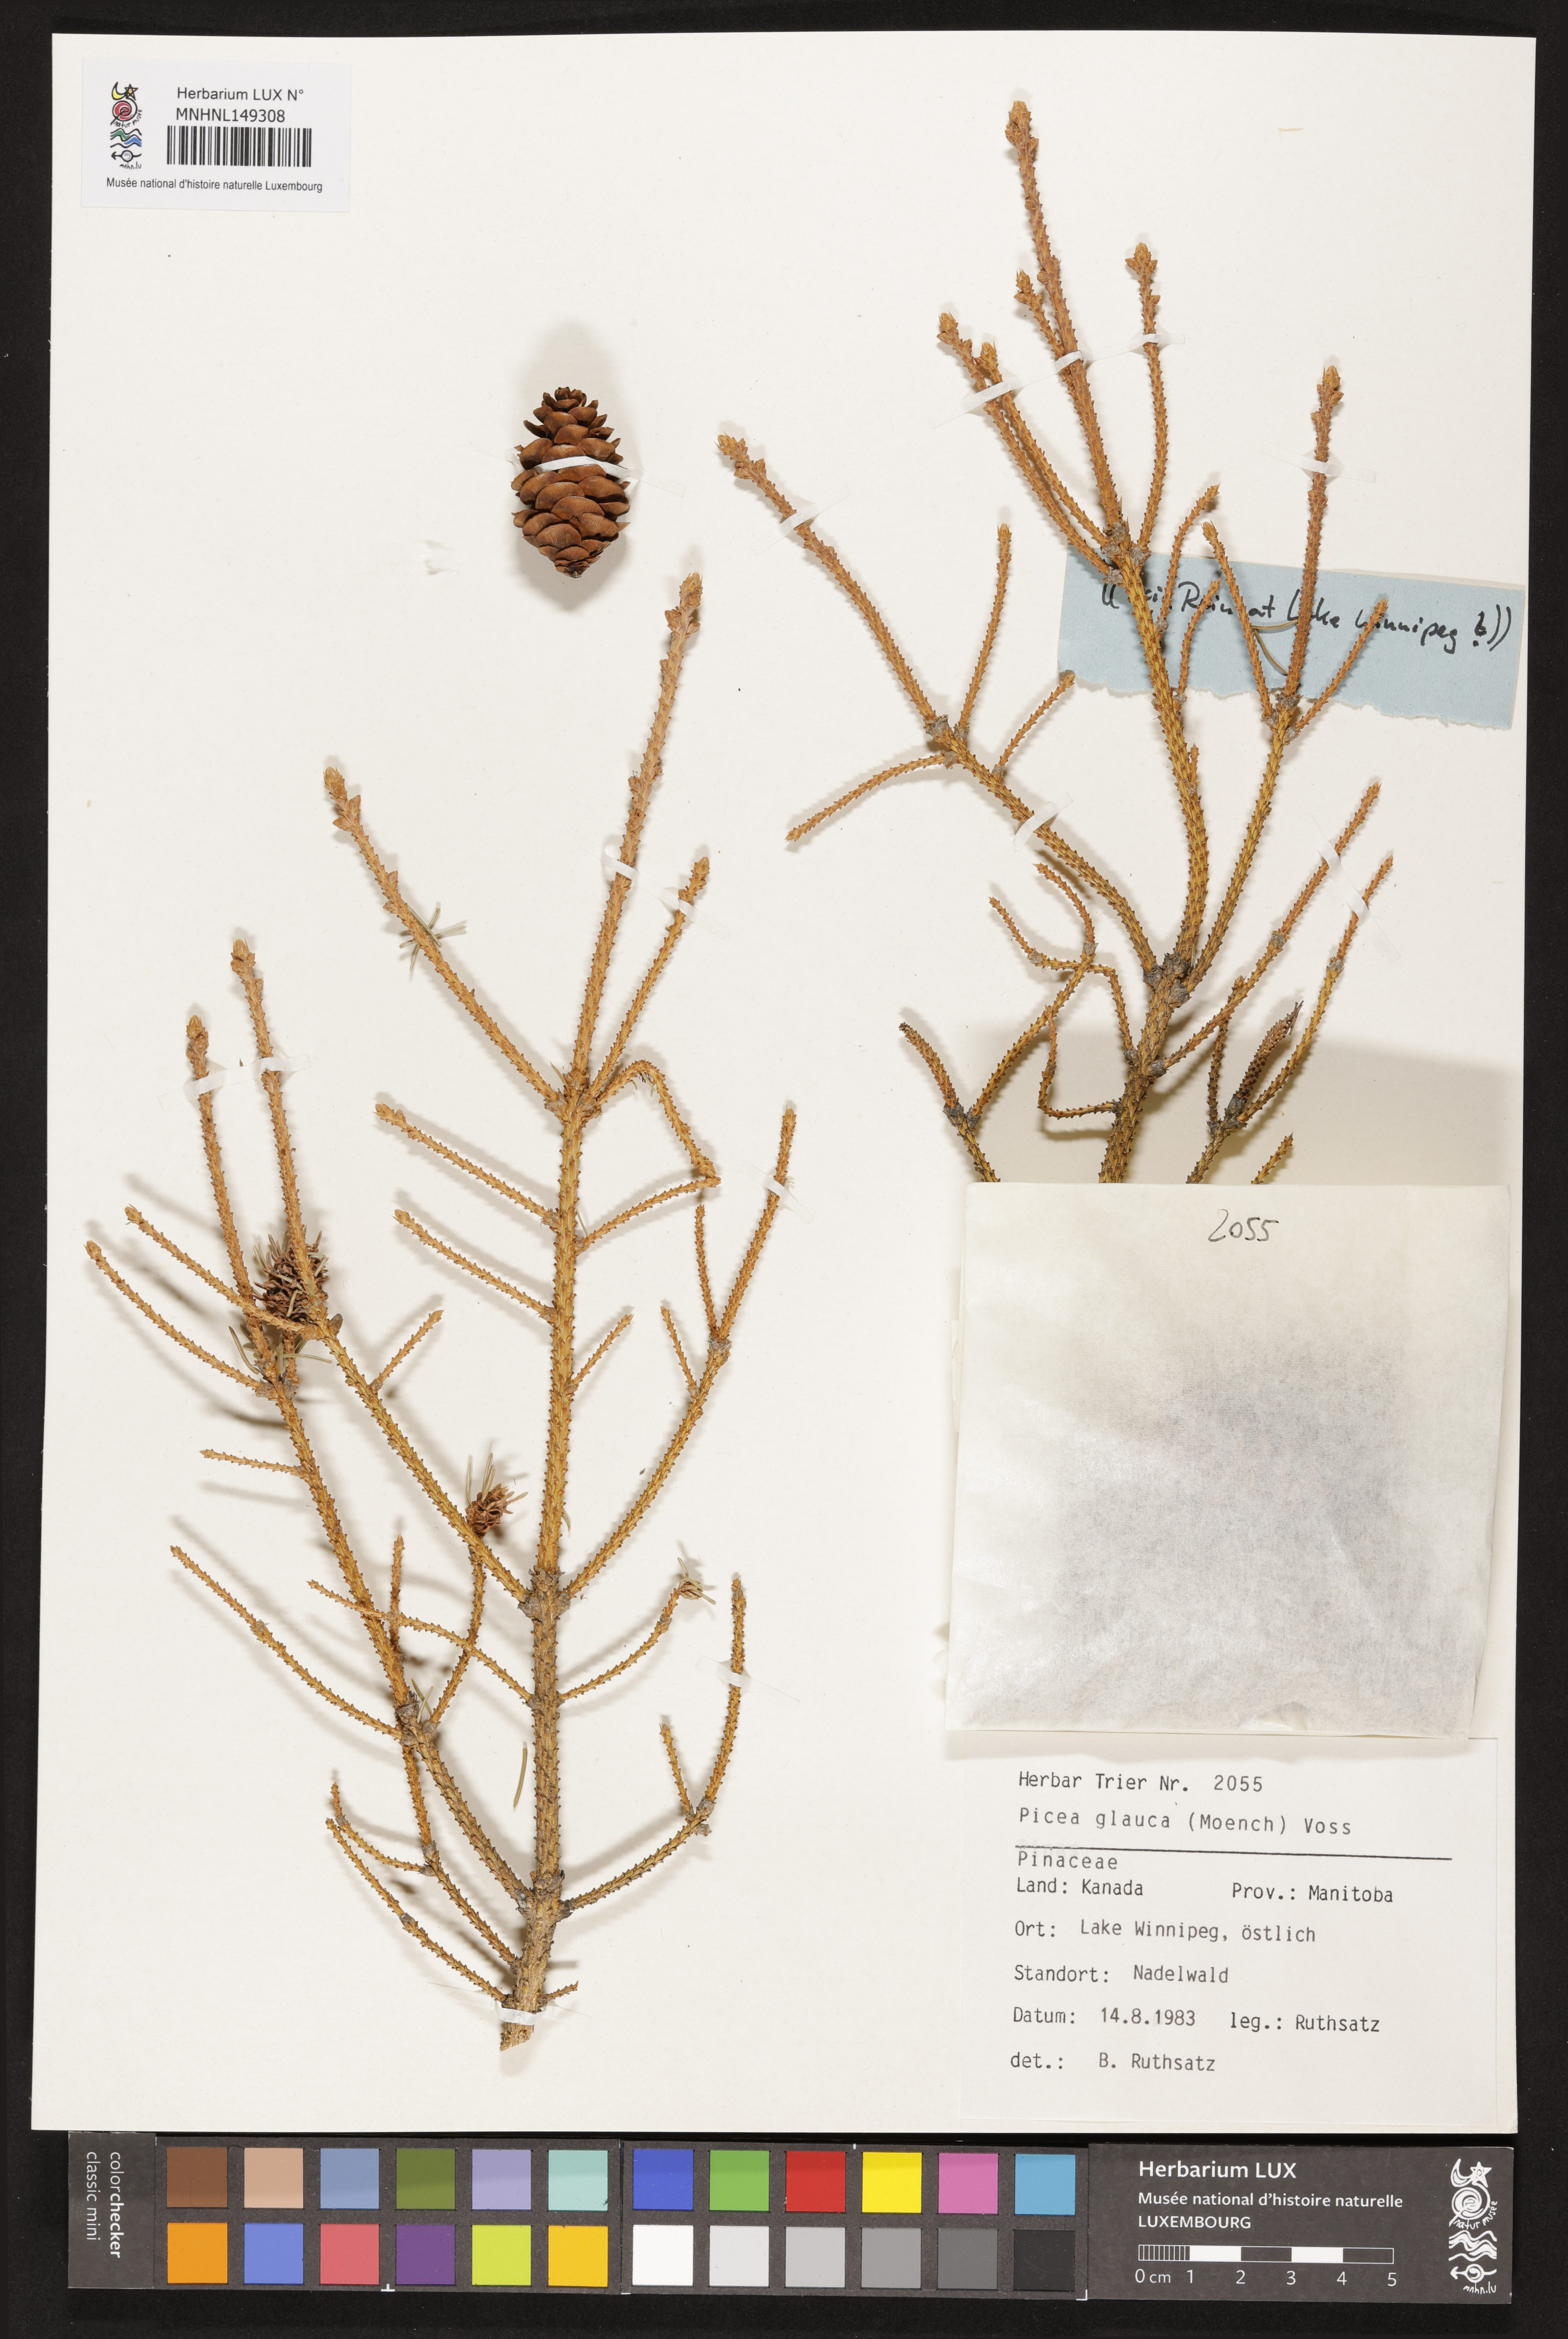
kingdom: Plantae
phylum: Tracheophyta
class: Pinopsida
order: Pinales
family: Pinaceae
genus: Picea
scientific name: Picea glauca
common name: White spruce
